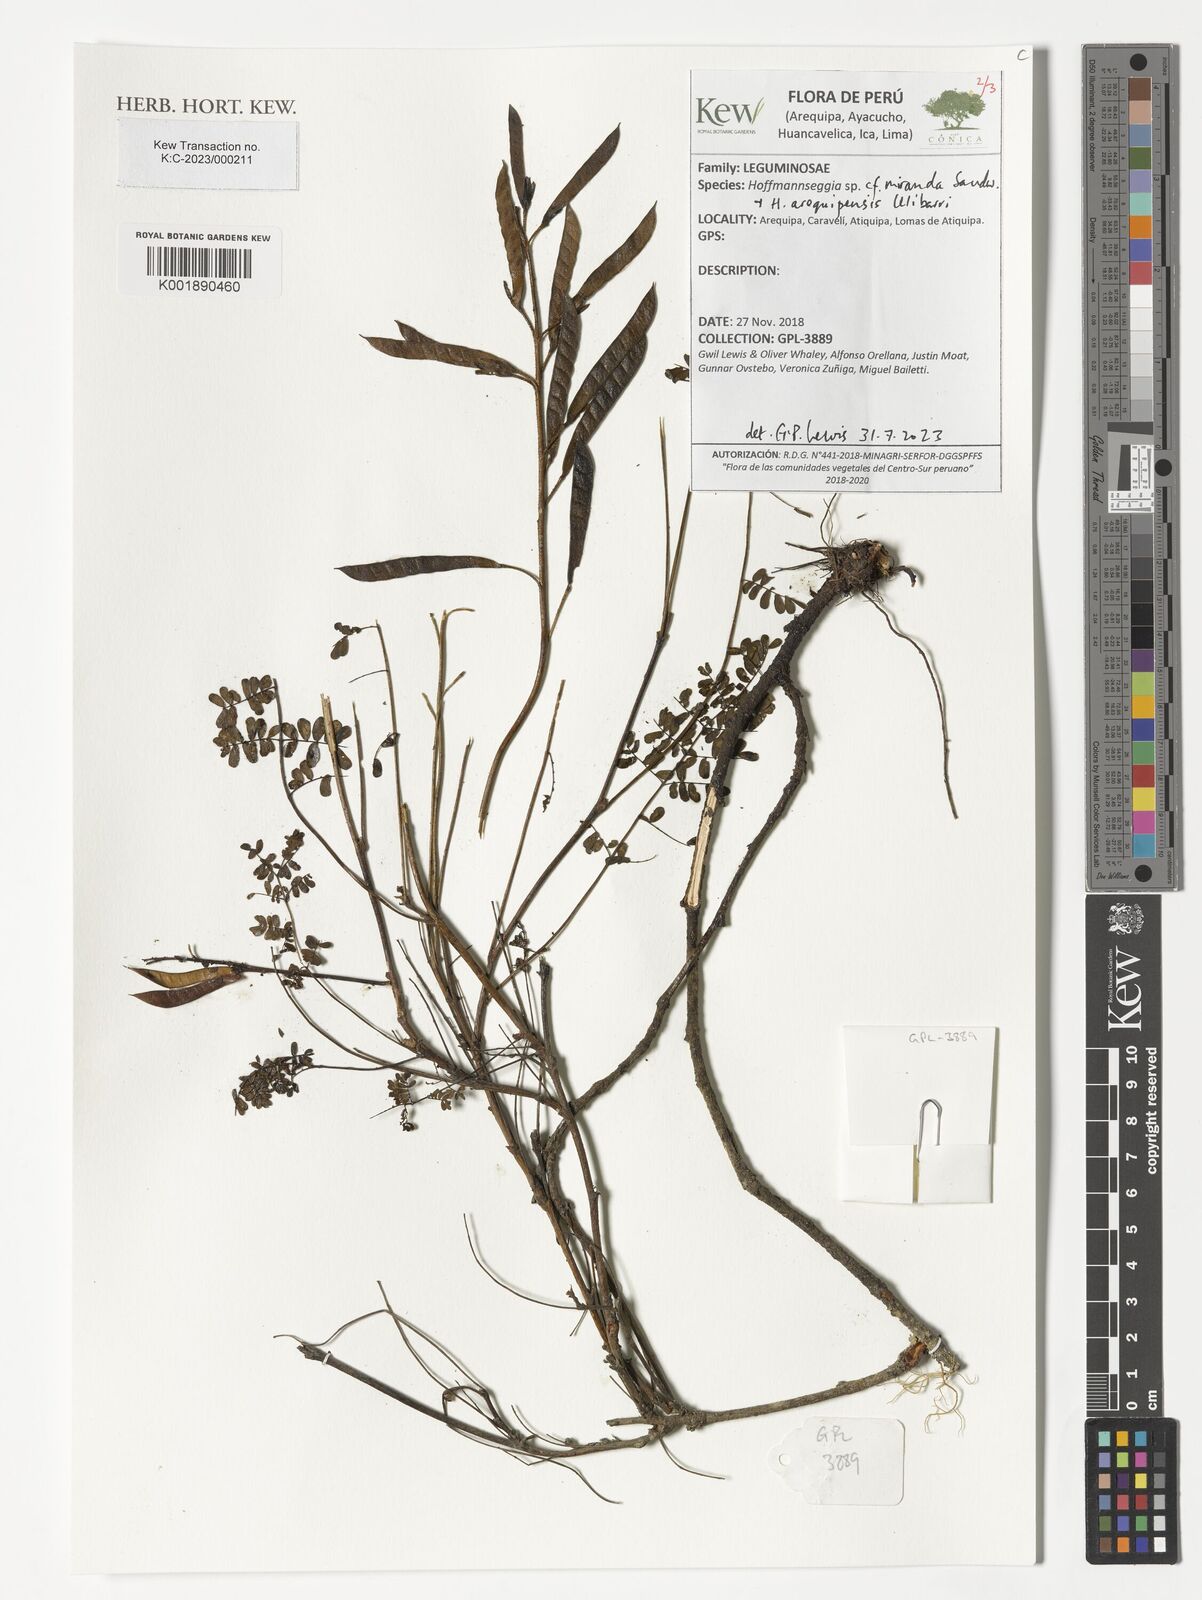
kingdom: Plantae
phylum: Tracheophyta
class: Magnoliopsida
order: Fabales
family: Fabaceae
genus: Hoffmannseggia
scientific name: Hoffmannseggia
